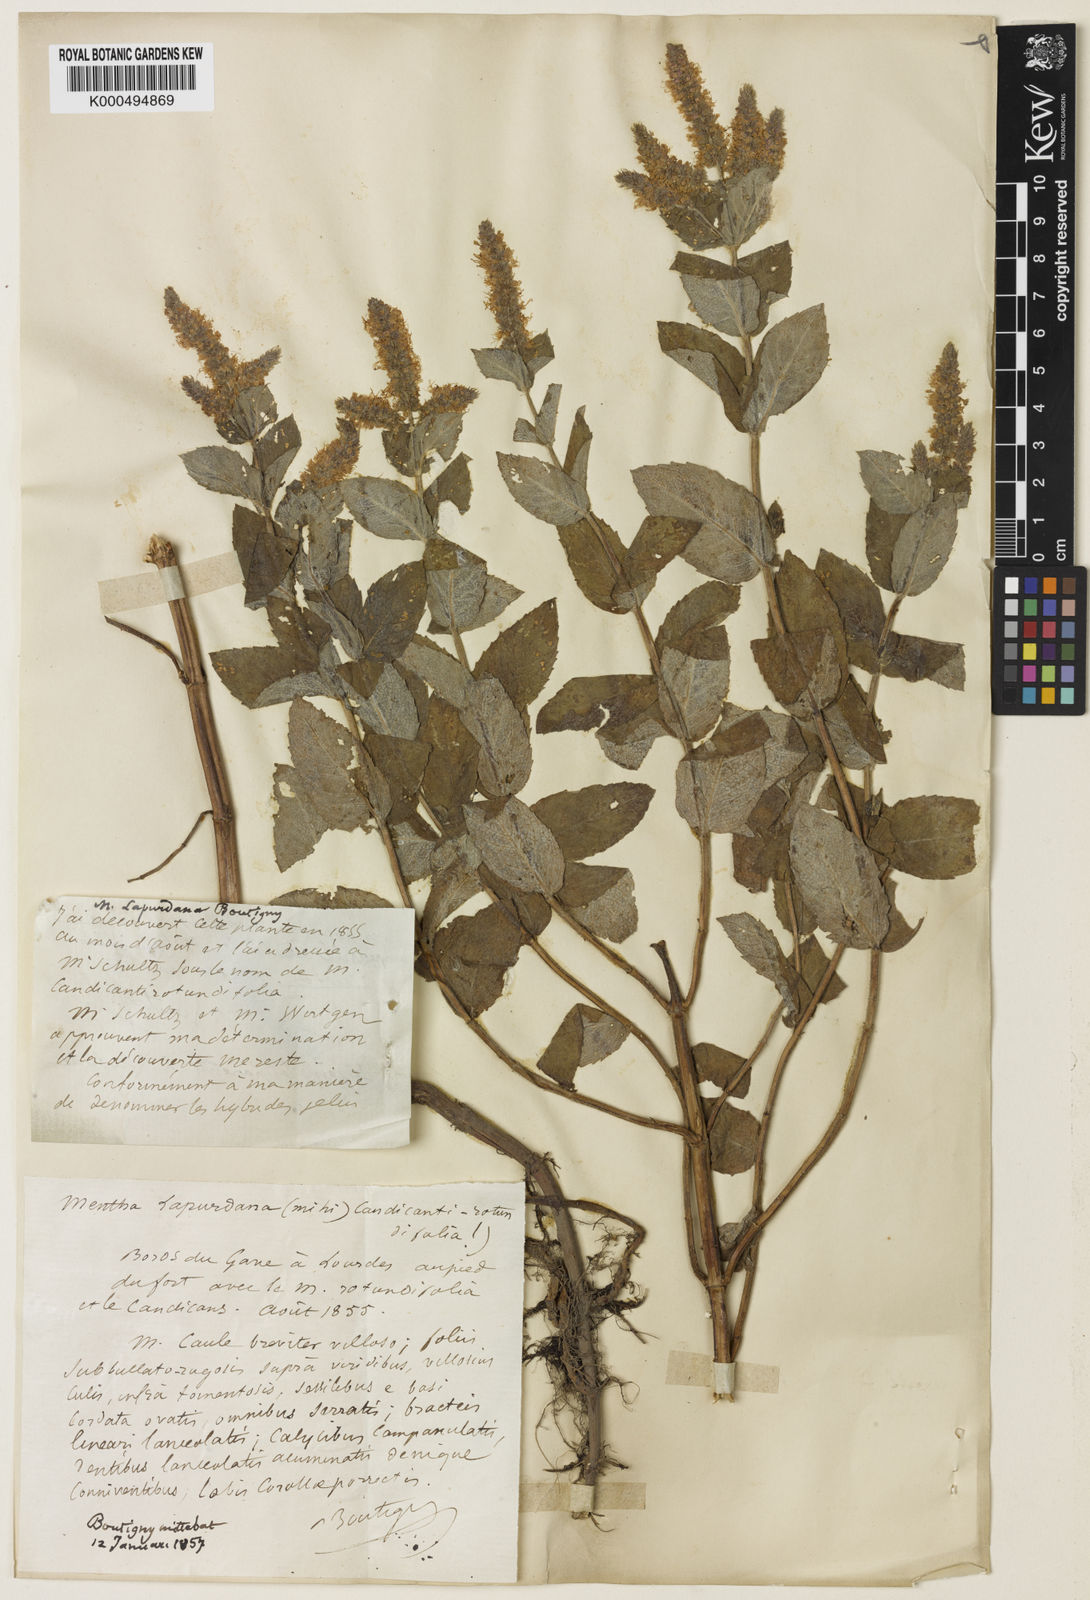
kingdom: Plantae
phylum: Tracheophyta
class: Magnoliopsida
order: Lamiales
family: Lamiaceae
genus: Mentha
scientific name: Mentha rotundifolia
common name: Bigleaf mint
